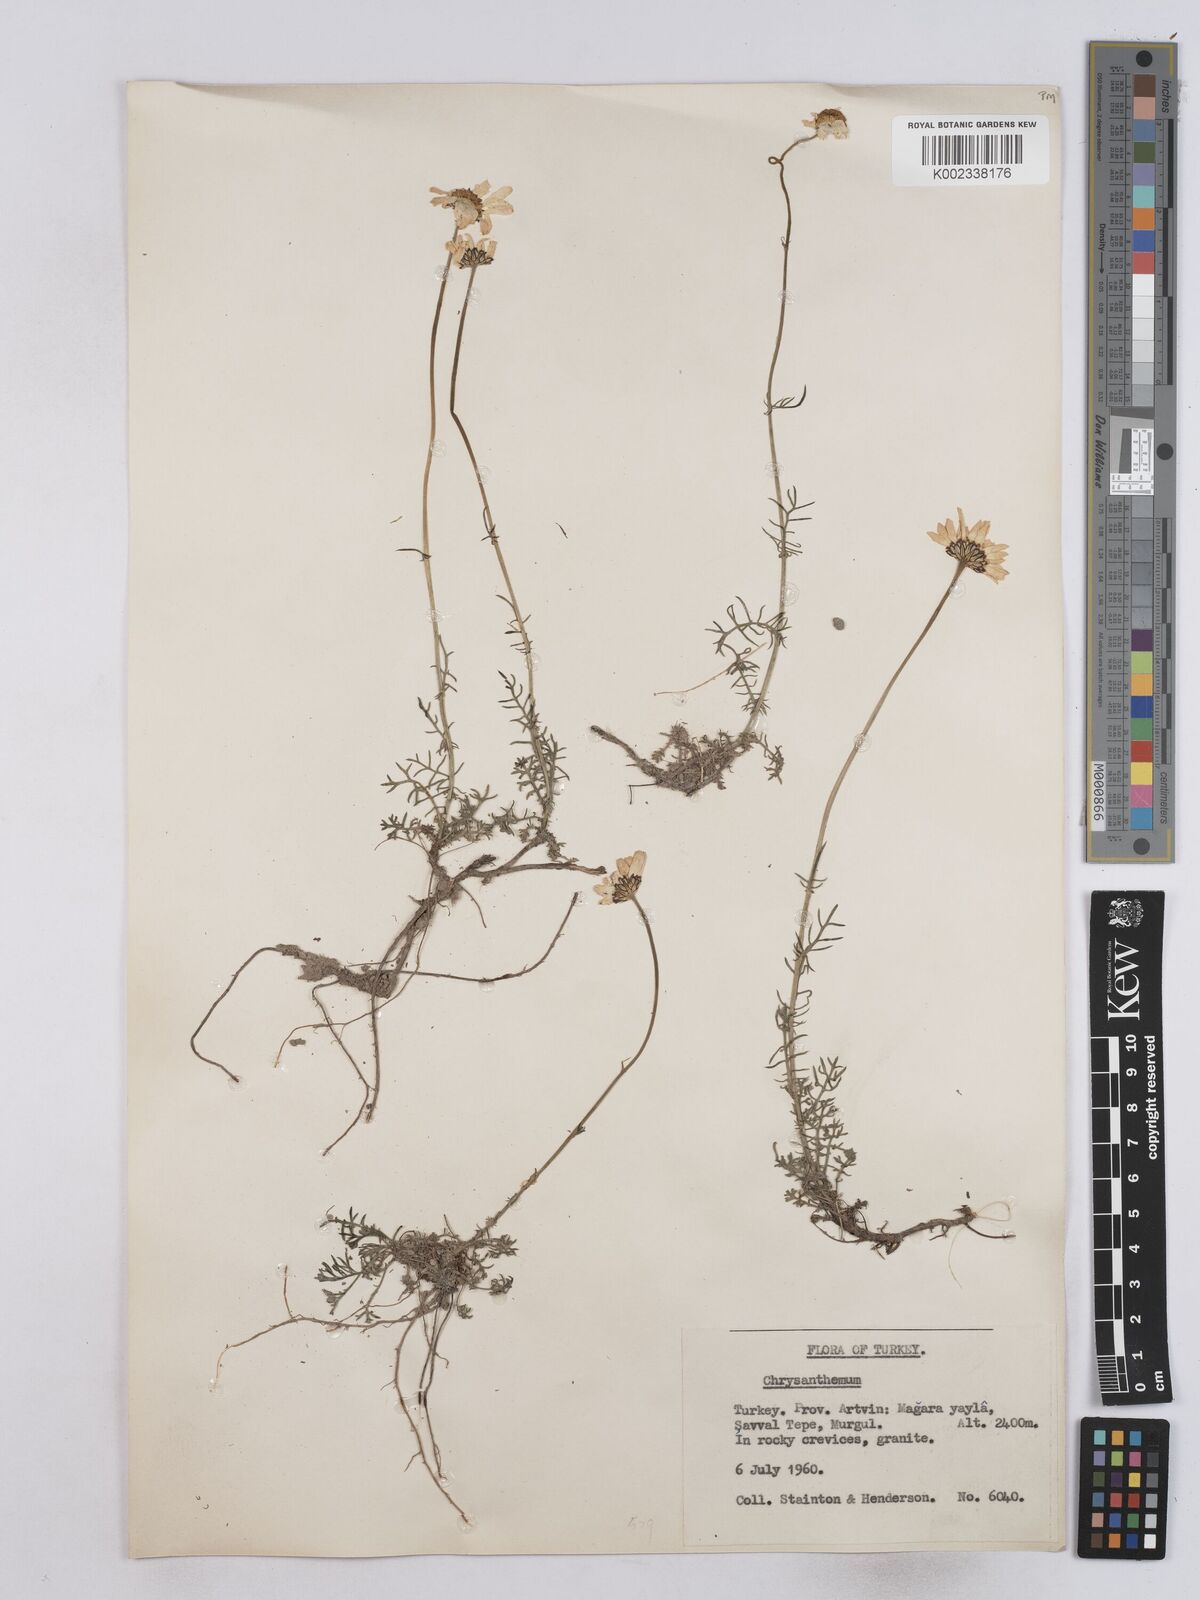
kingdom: Plantae
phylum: Tracheophyta
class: Magnoliopsida
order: Asterales
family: Asteraceae
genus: Matricaria
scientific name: Matricaria
